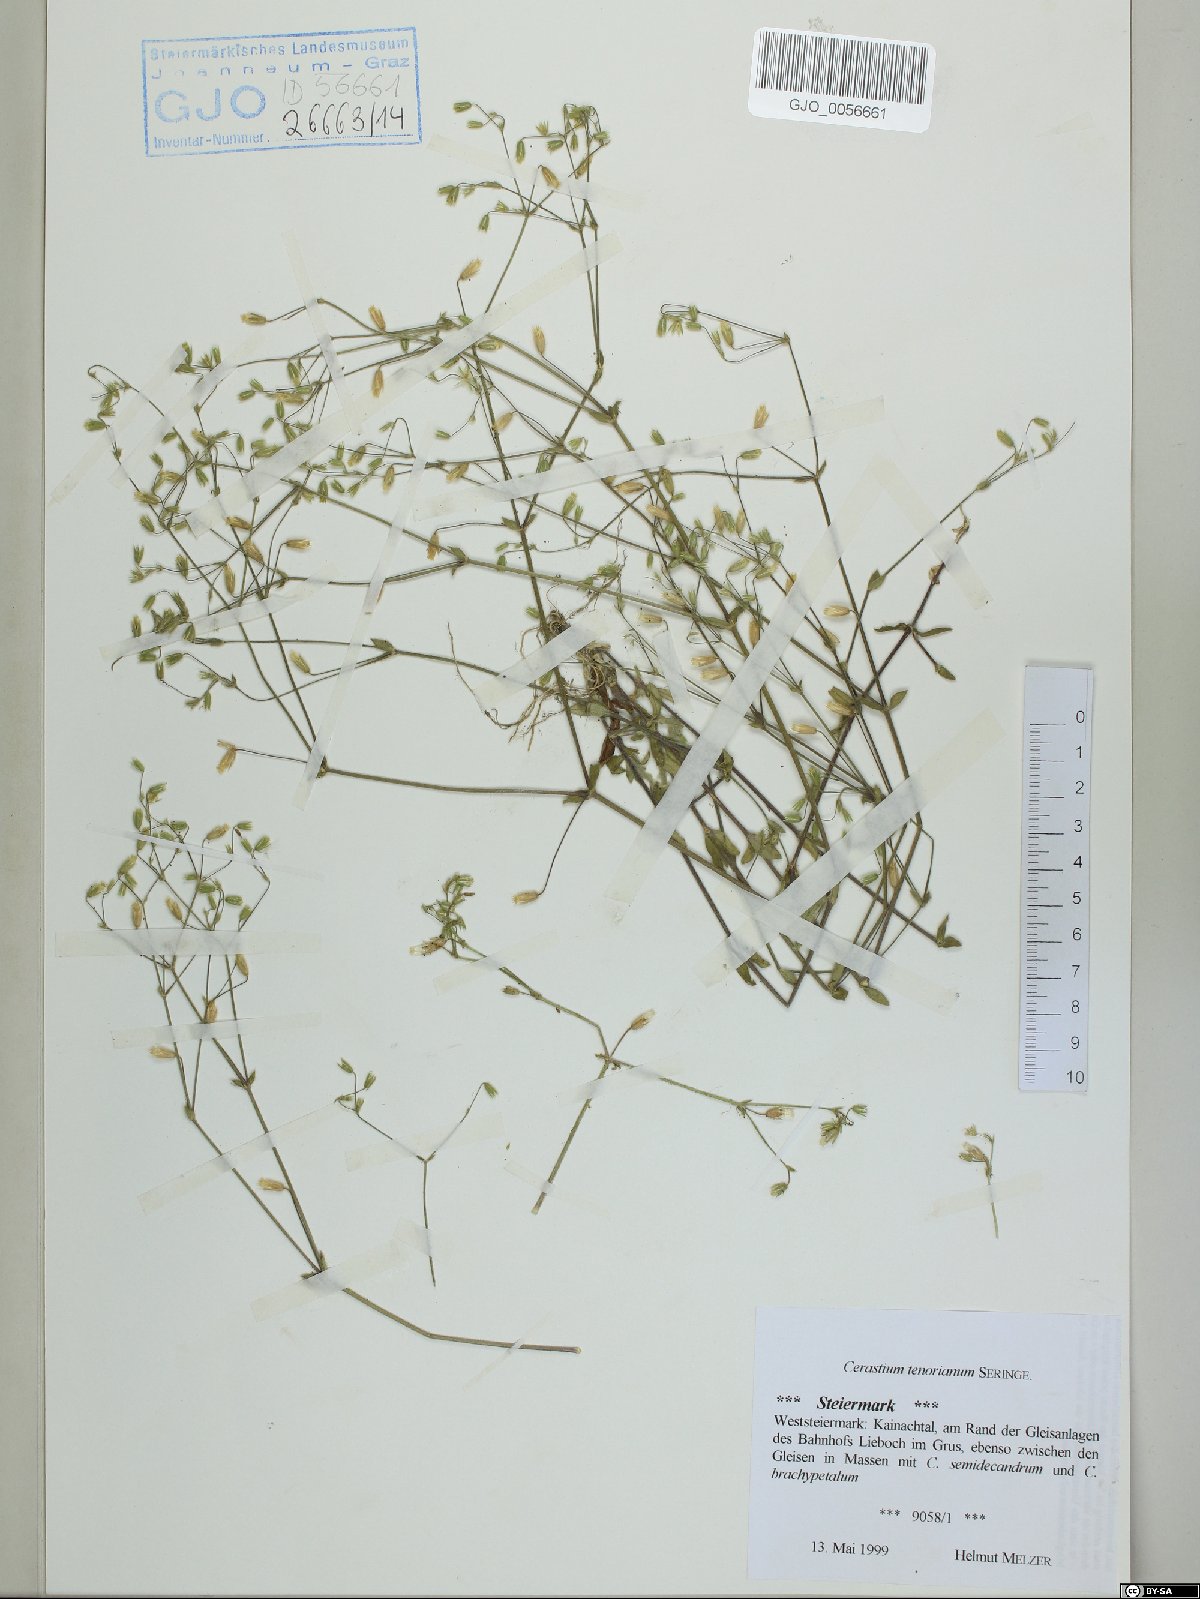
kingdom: Plantae
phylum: Tracheophyta
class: Magnoliopsida
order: Caryophyllales
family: Caryophyllaceae
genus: Cerastium
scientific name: Cerastium tenoreanum
